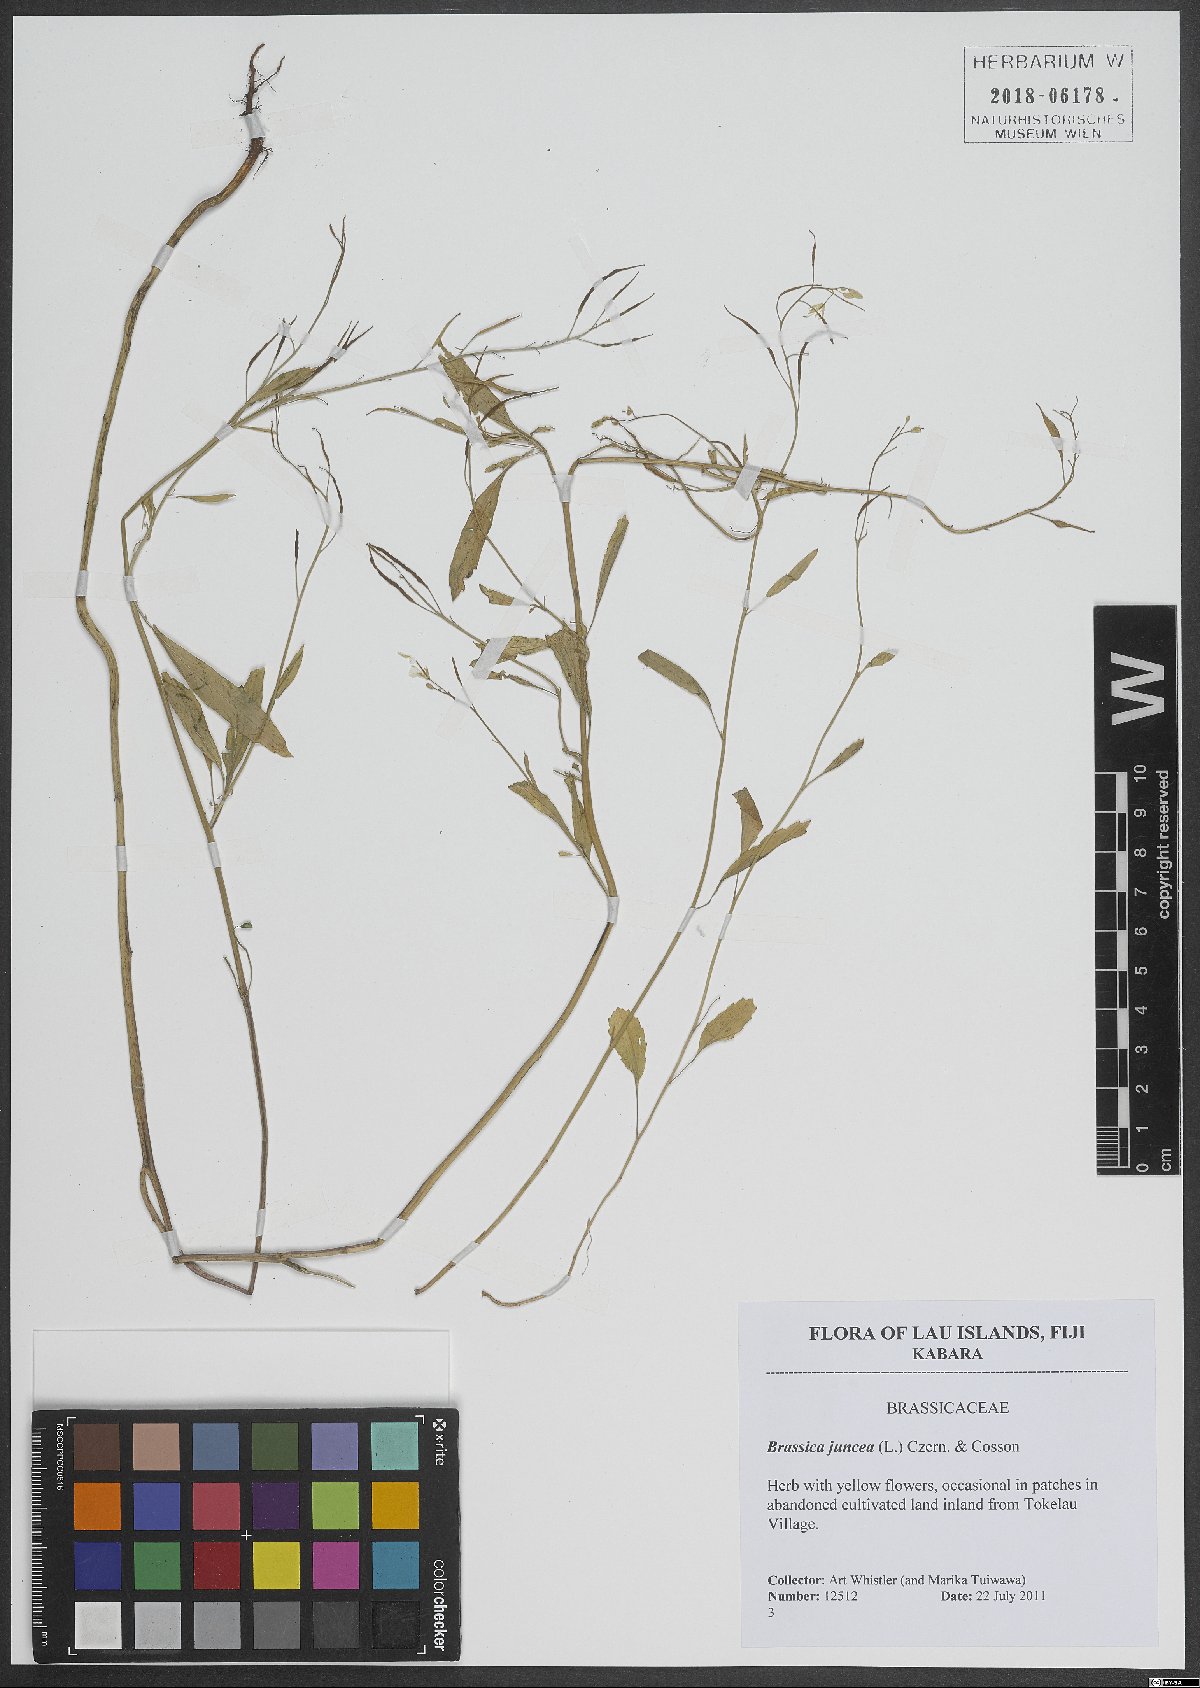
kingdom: Plantae
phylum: Tracheophyta
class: Magnoliopsida
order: Brassicales
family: Brassicaceae
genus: Brassica
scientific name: Brassica juncea
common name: Brown mustard
